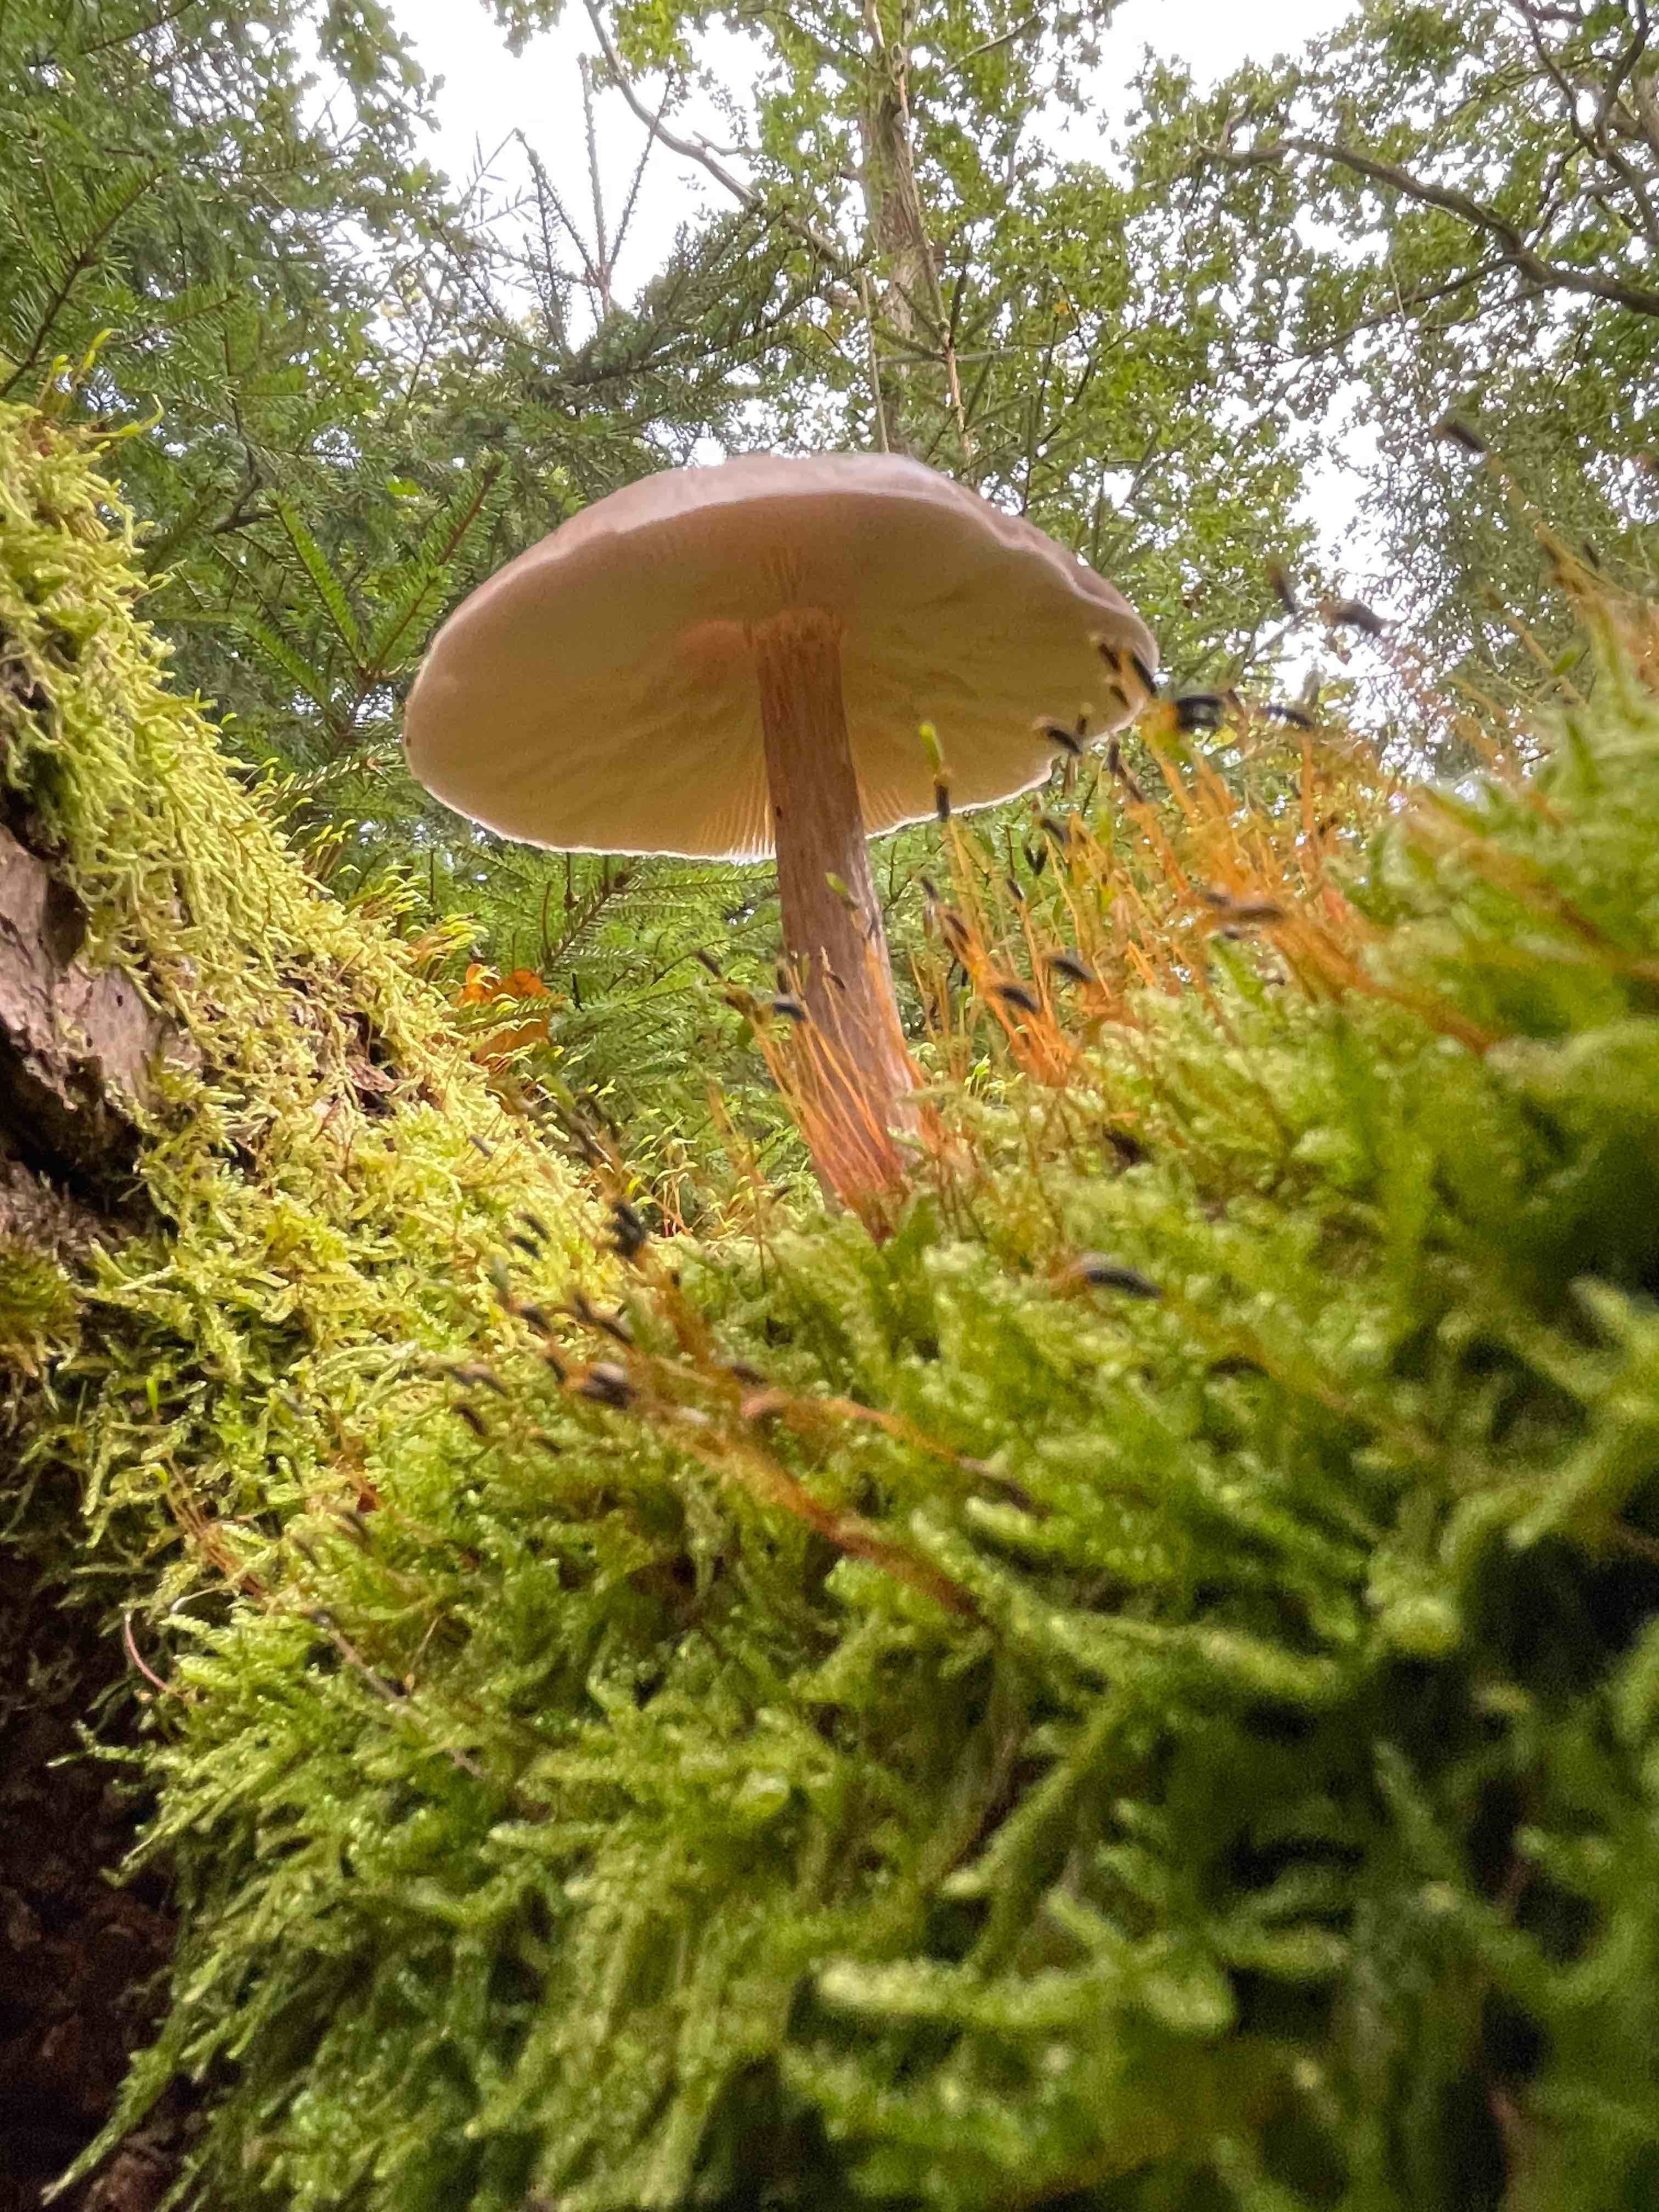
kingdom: Fungi
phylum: Basidiomycota
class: Agaricomycetes
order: Agaricales
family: Pluteaceae
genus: Pluteus
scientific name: Pluteus
